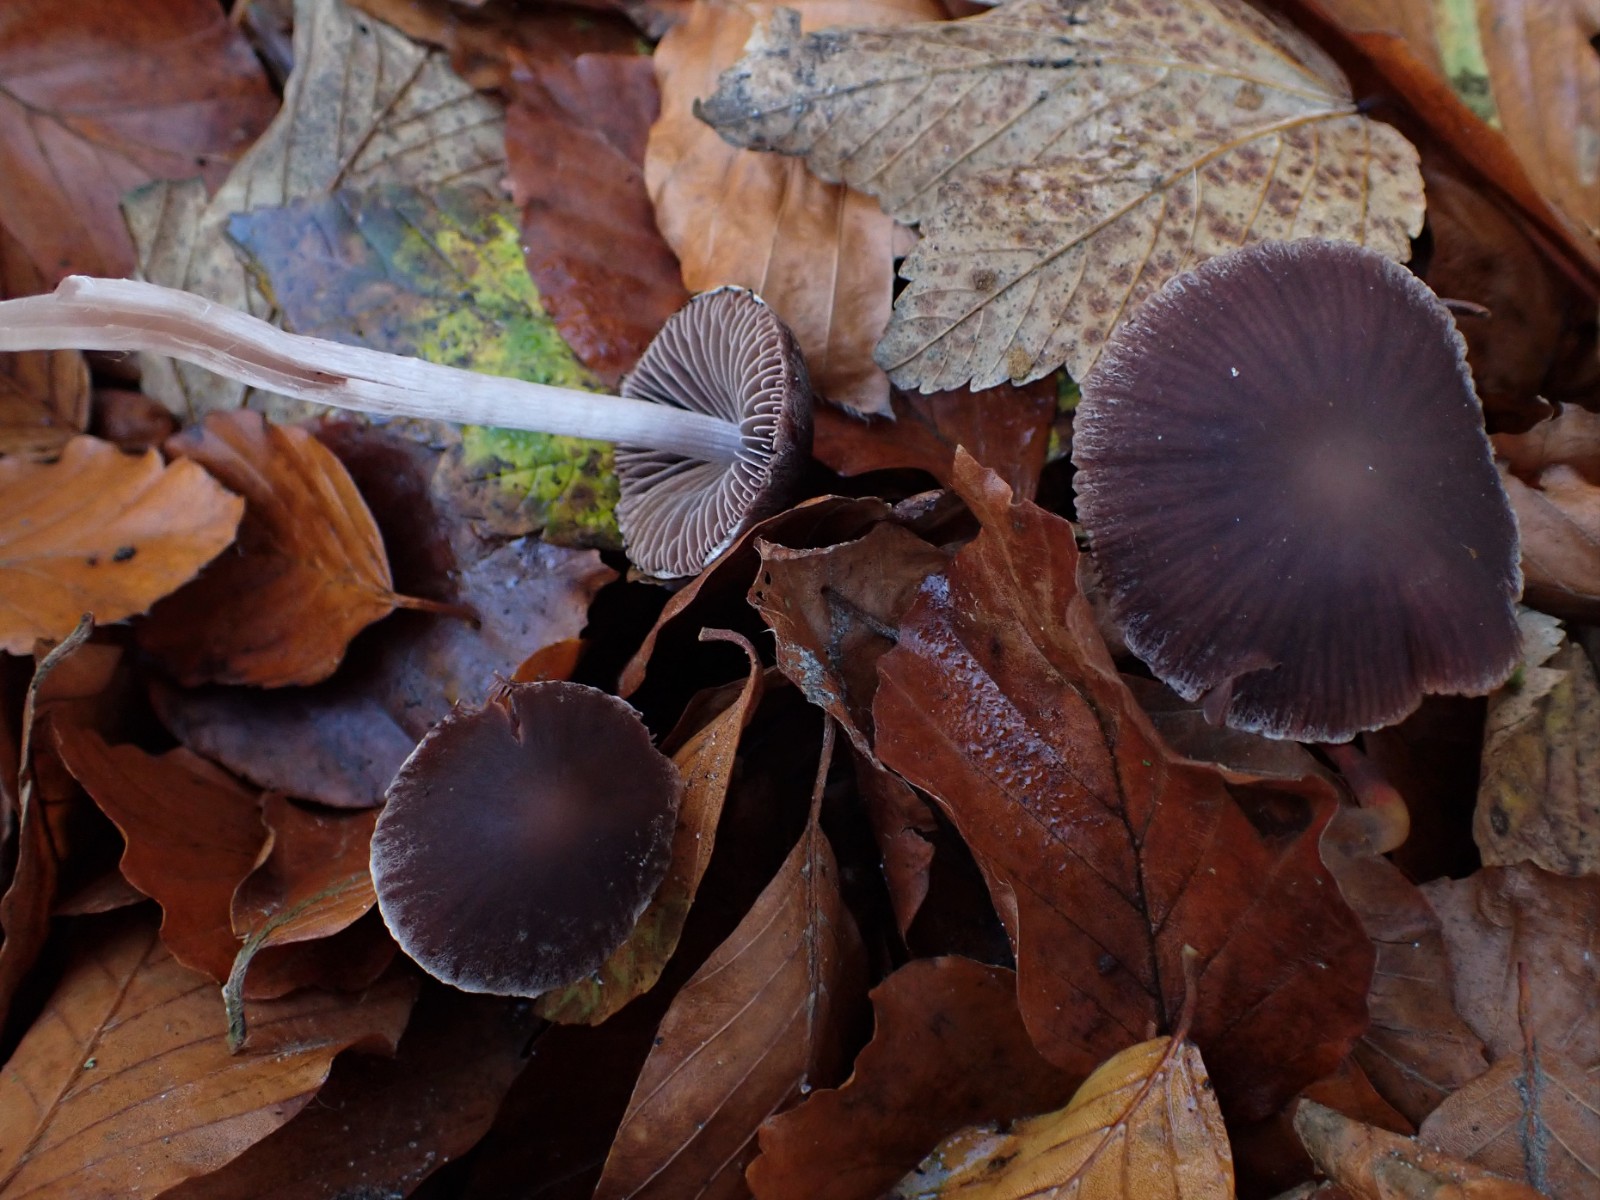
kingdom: Fungi
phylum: Basidiomycota
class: Agaricomycetes
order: Agaricales
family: Psathyrellaceae
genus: Psathyrella
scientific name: Psathyrella bipellis
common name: vinrød mørkhat
